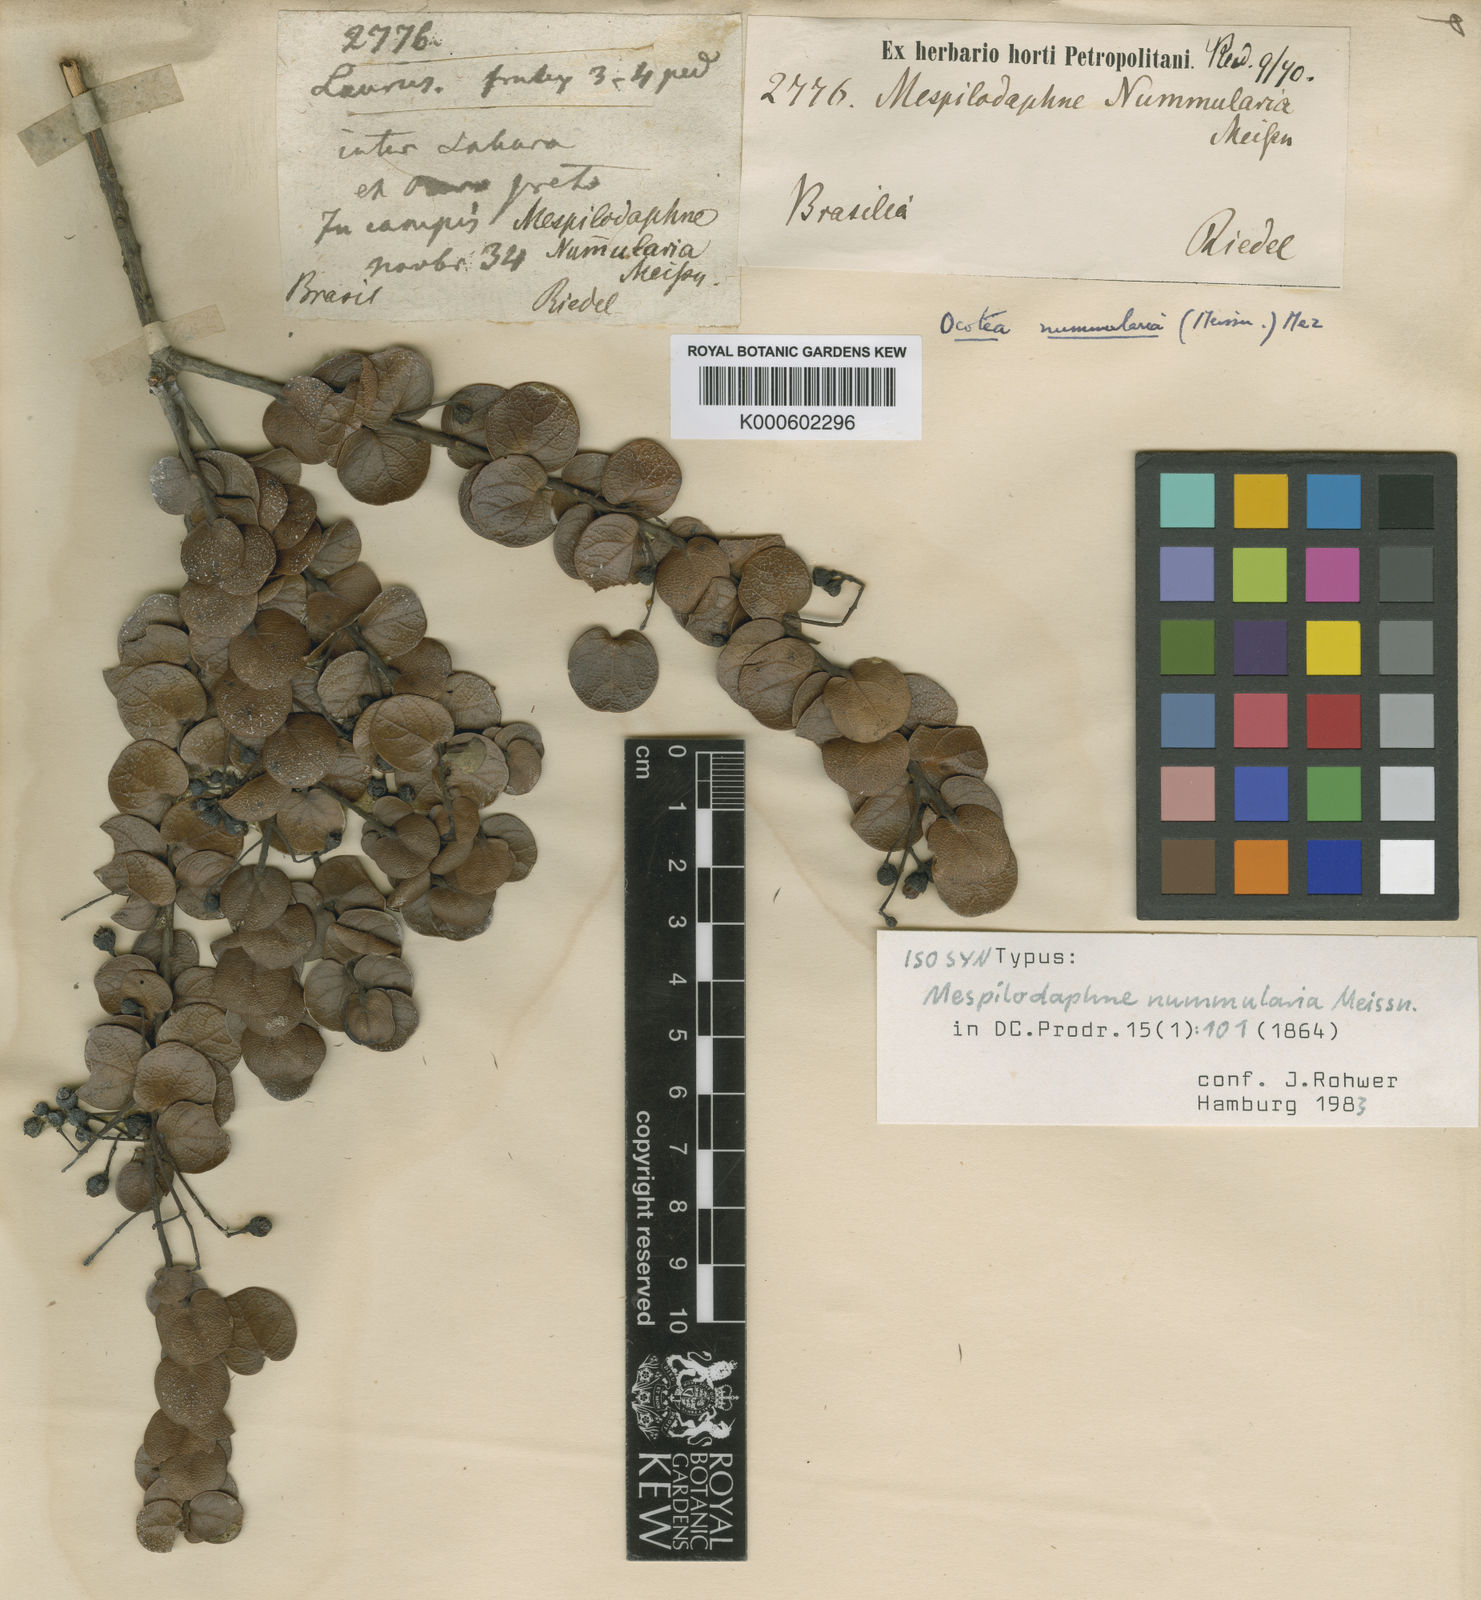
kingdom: Plantae
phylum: Tracheophyta
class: Magnoliopsida
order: Laurales
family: Lauraceae
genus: Mespilodaphne
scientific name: Mespilodaphne tristis
